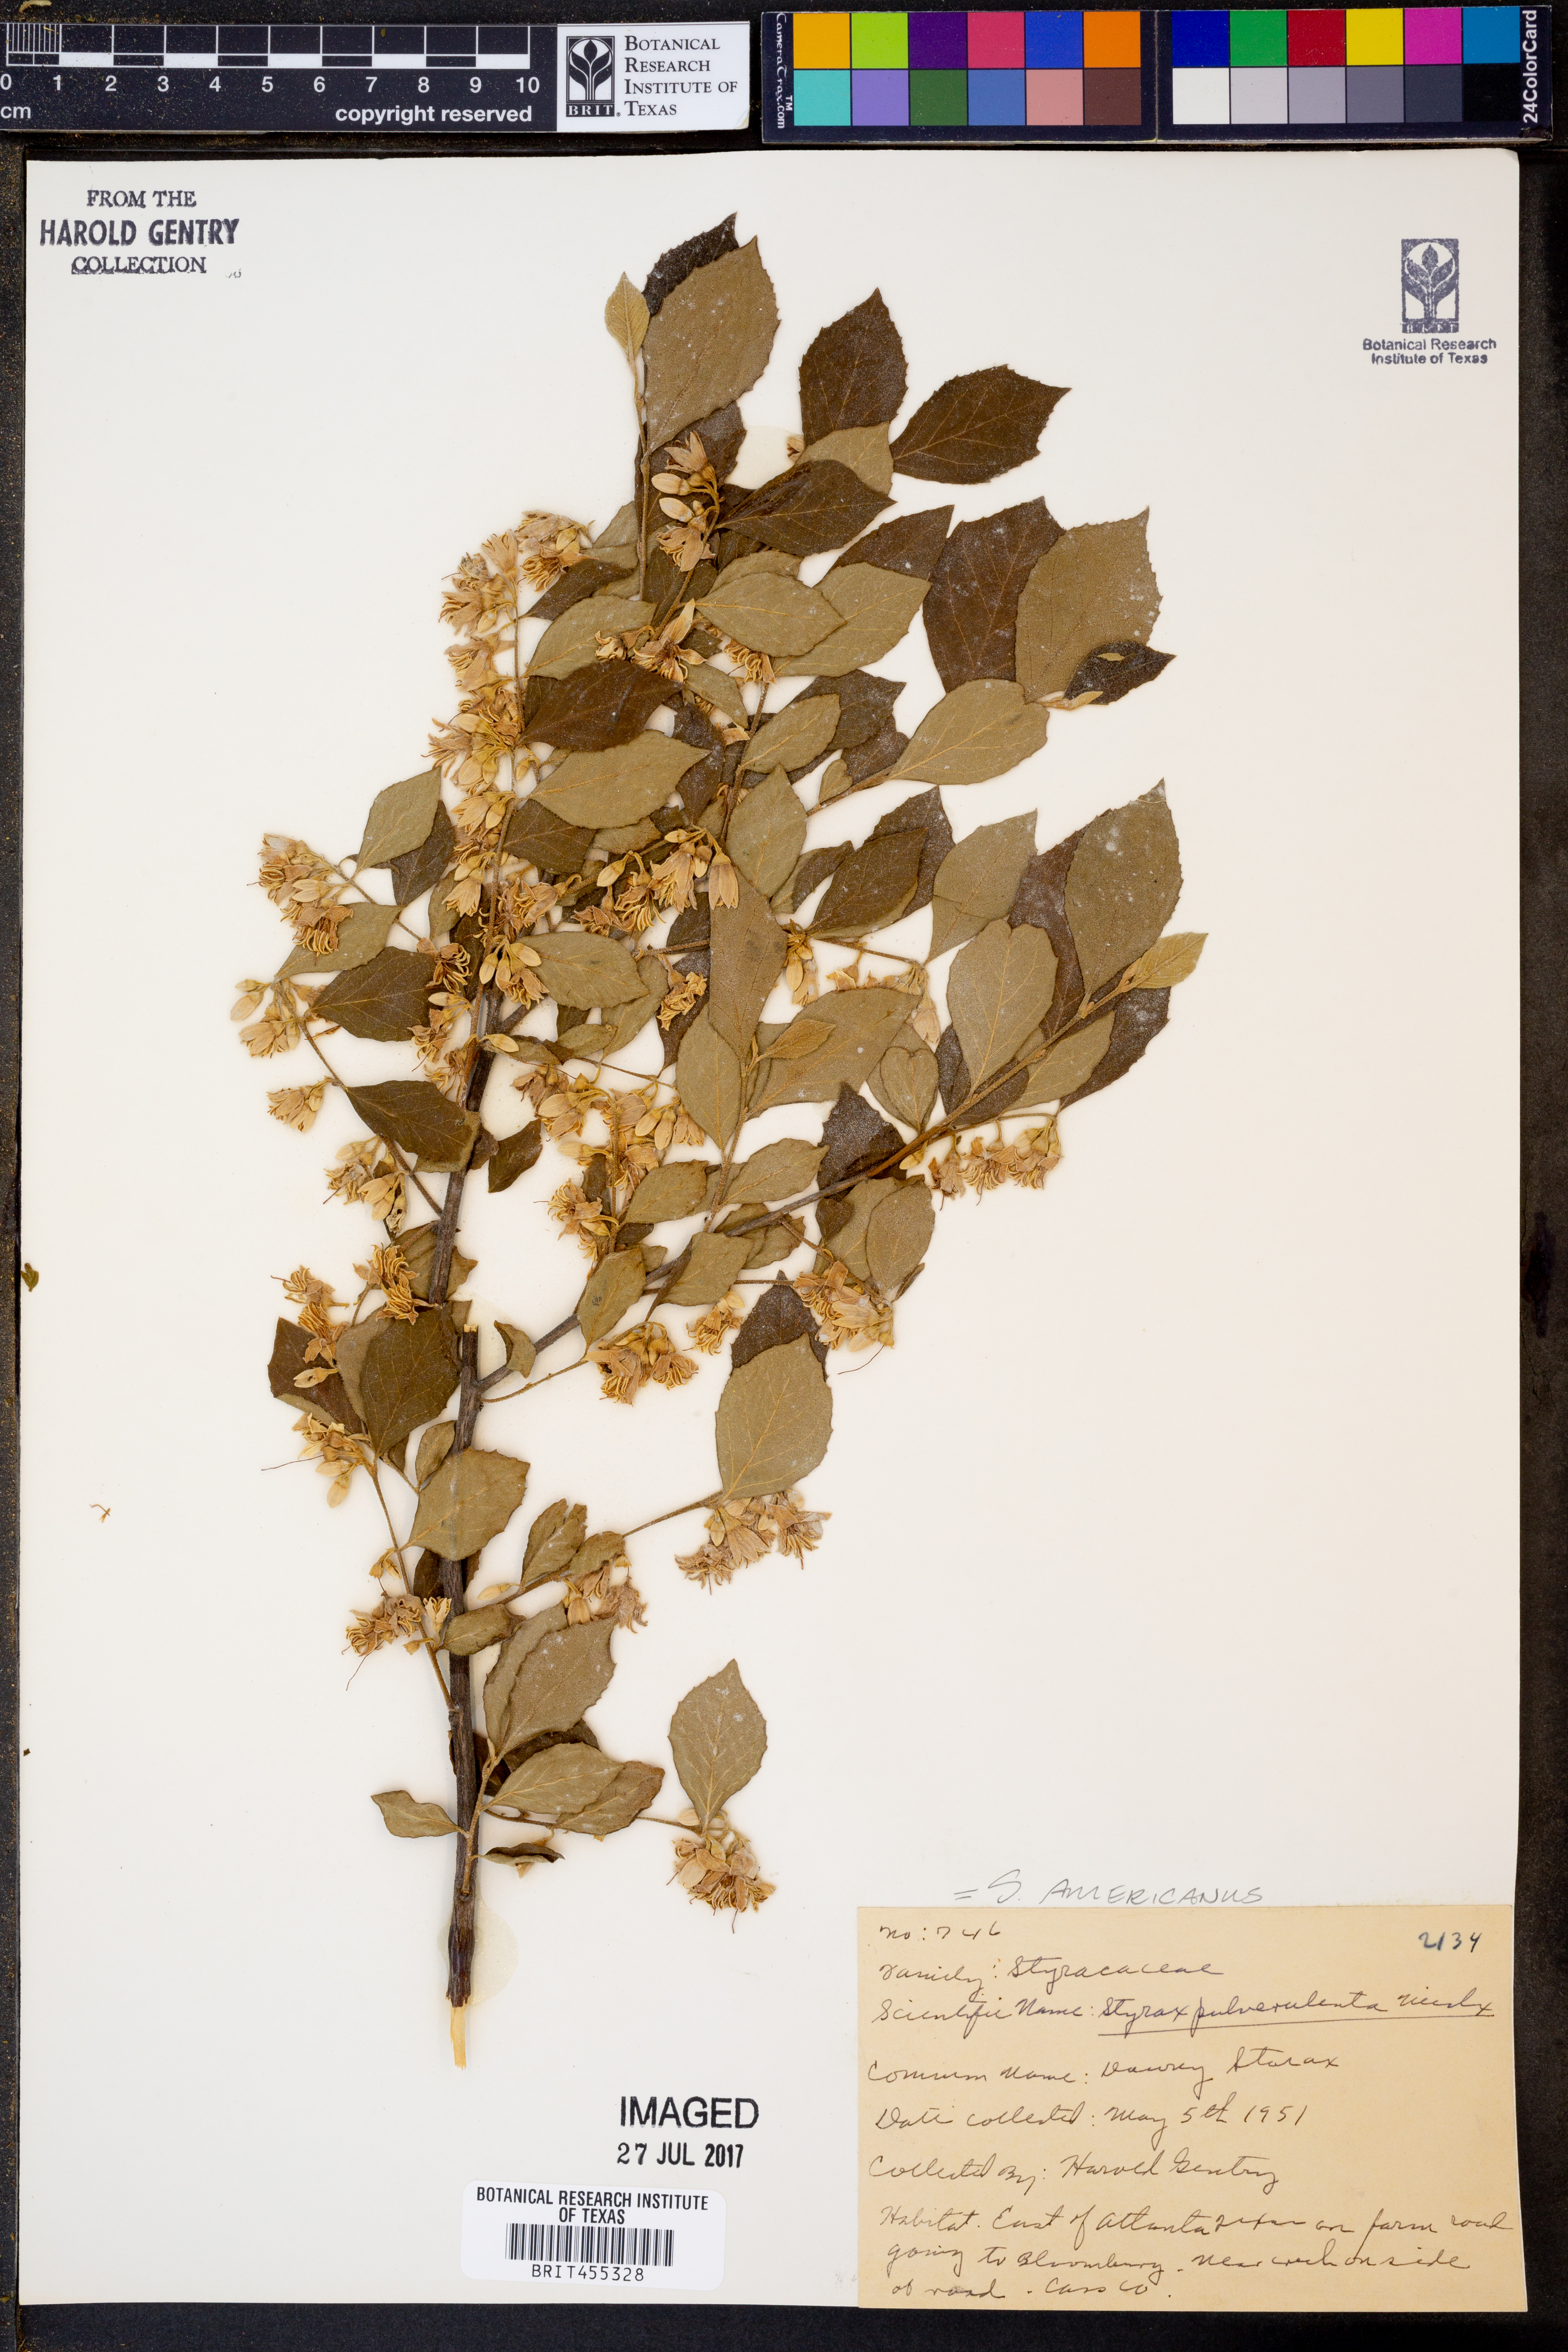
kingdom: Plantae
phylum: Tracheophyta
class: Magnoliopsida
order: Ericales
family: Styracaceae
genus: Styrax
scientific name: Styrax americanus
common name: American snowbell
